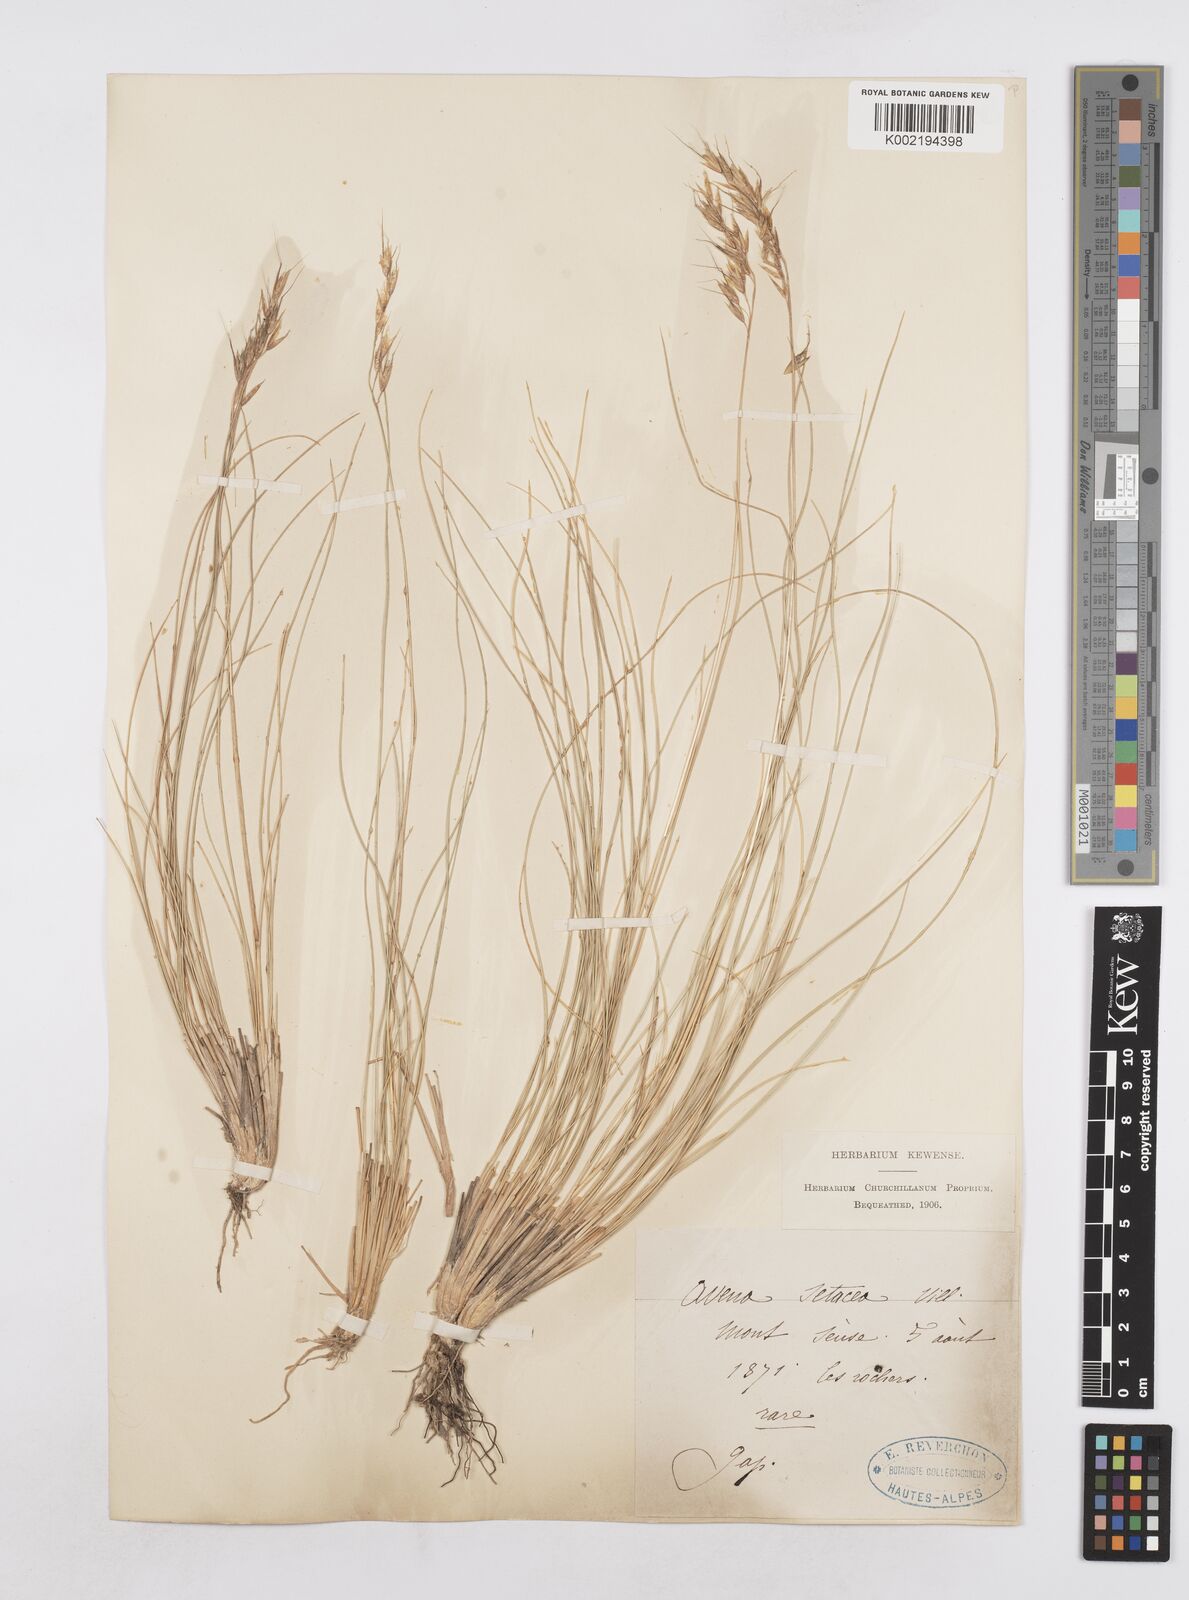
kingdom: Plantae
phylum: Tracheophyta
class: Liliopsida
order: Poales
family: Poaceae
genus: Helictotrichon
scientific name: Helictotrichon setaceum
